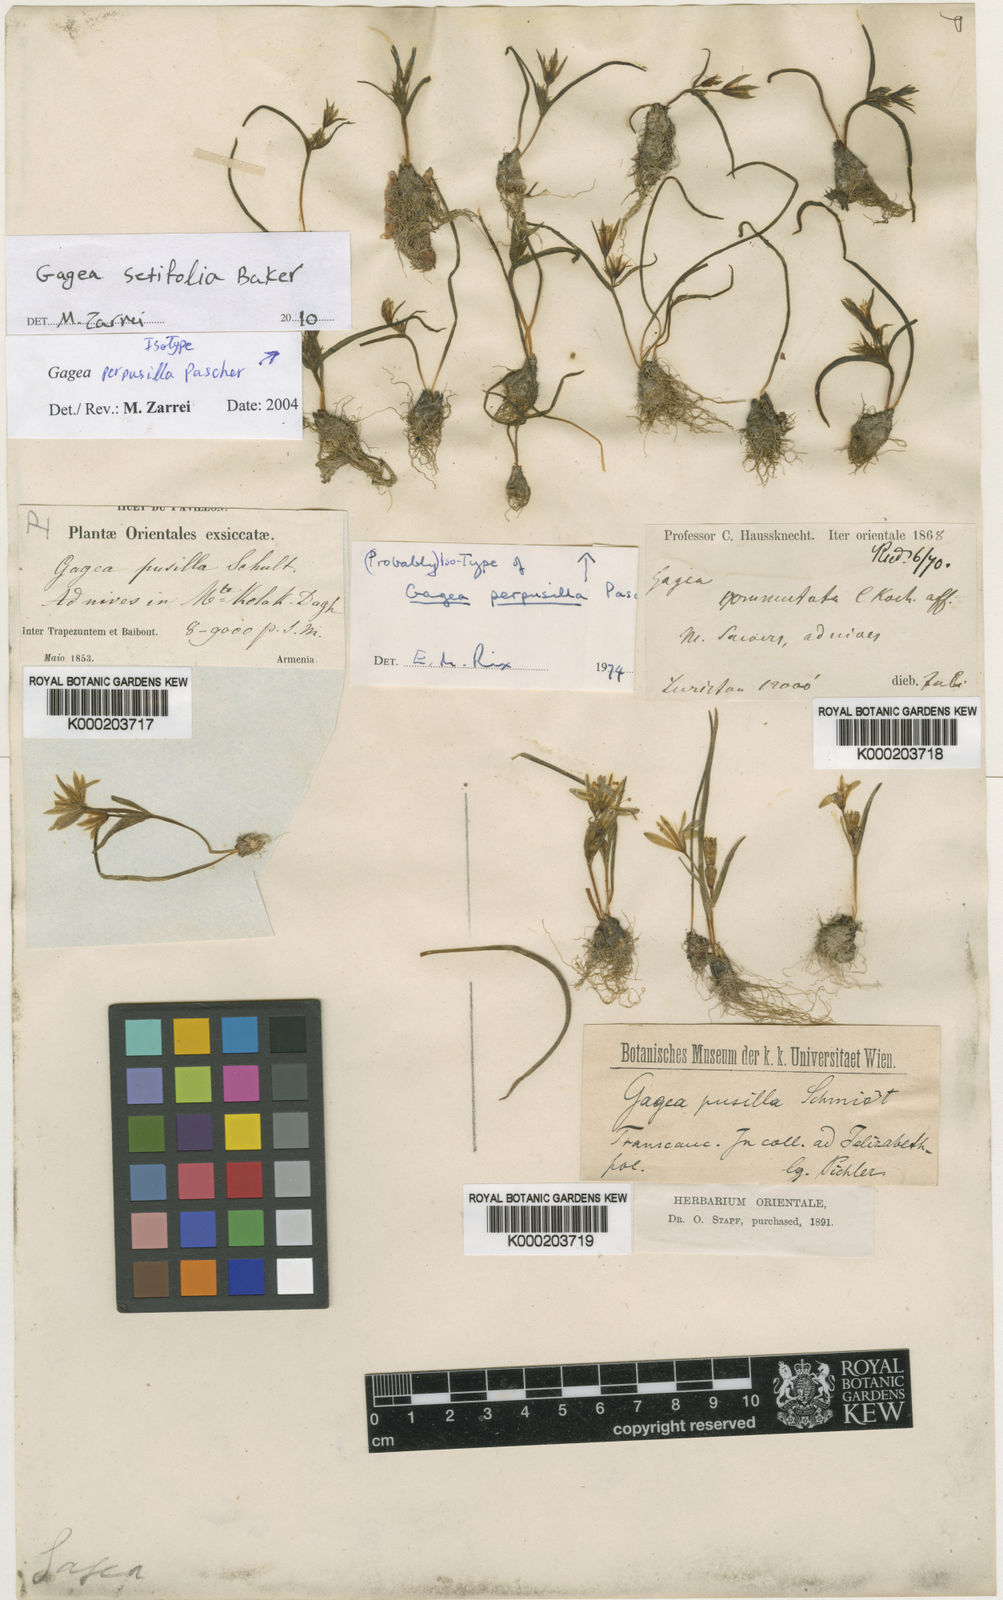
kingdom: Plantae
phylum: Tracheophyta
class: Liliopsida
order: Liliales
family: Liliaceae
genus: Gagea
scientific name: Gagea setifolia
